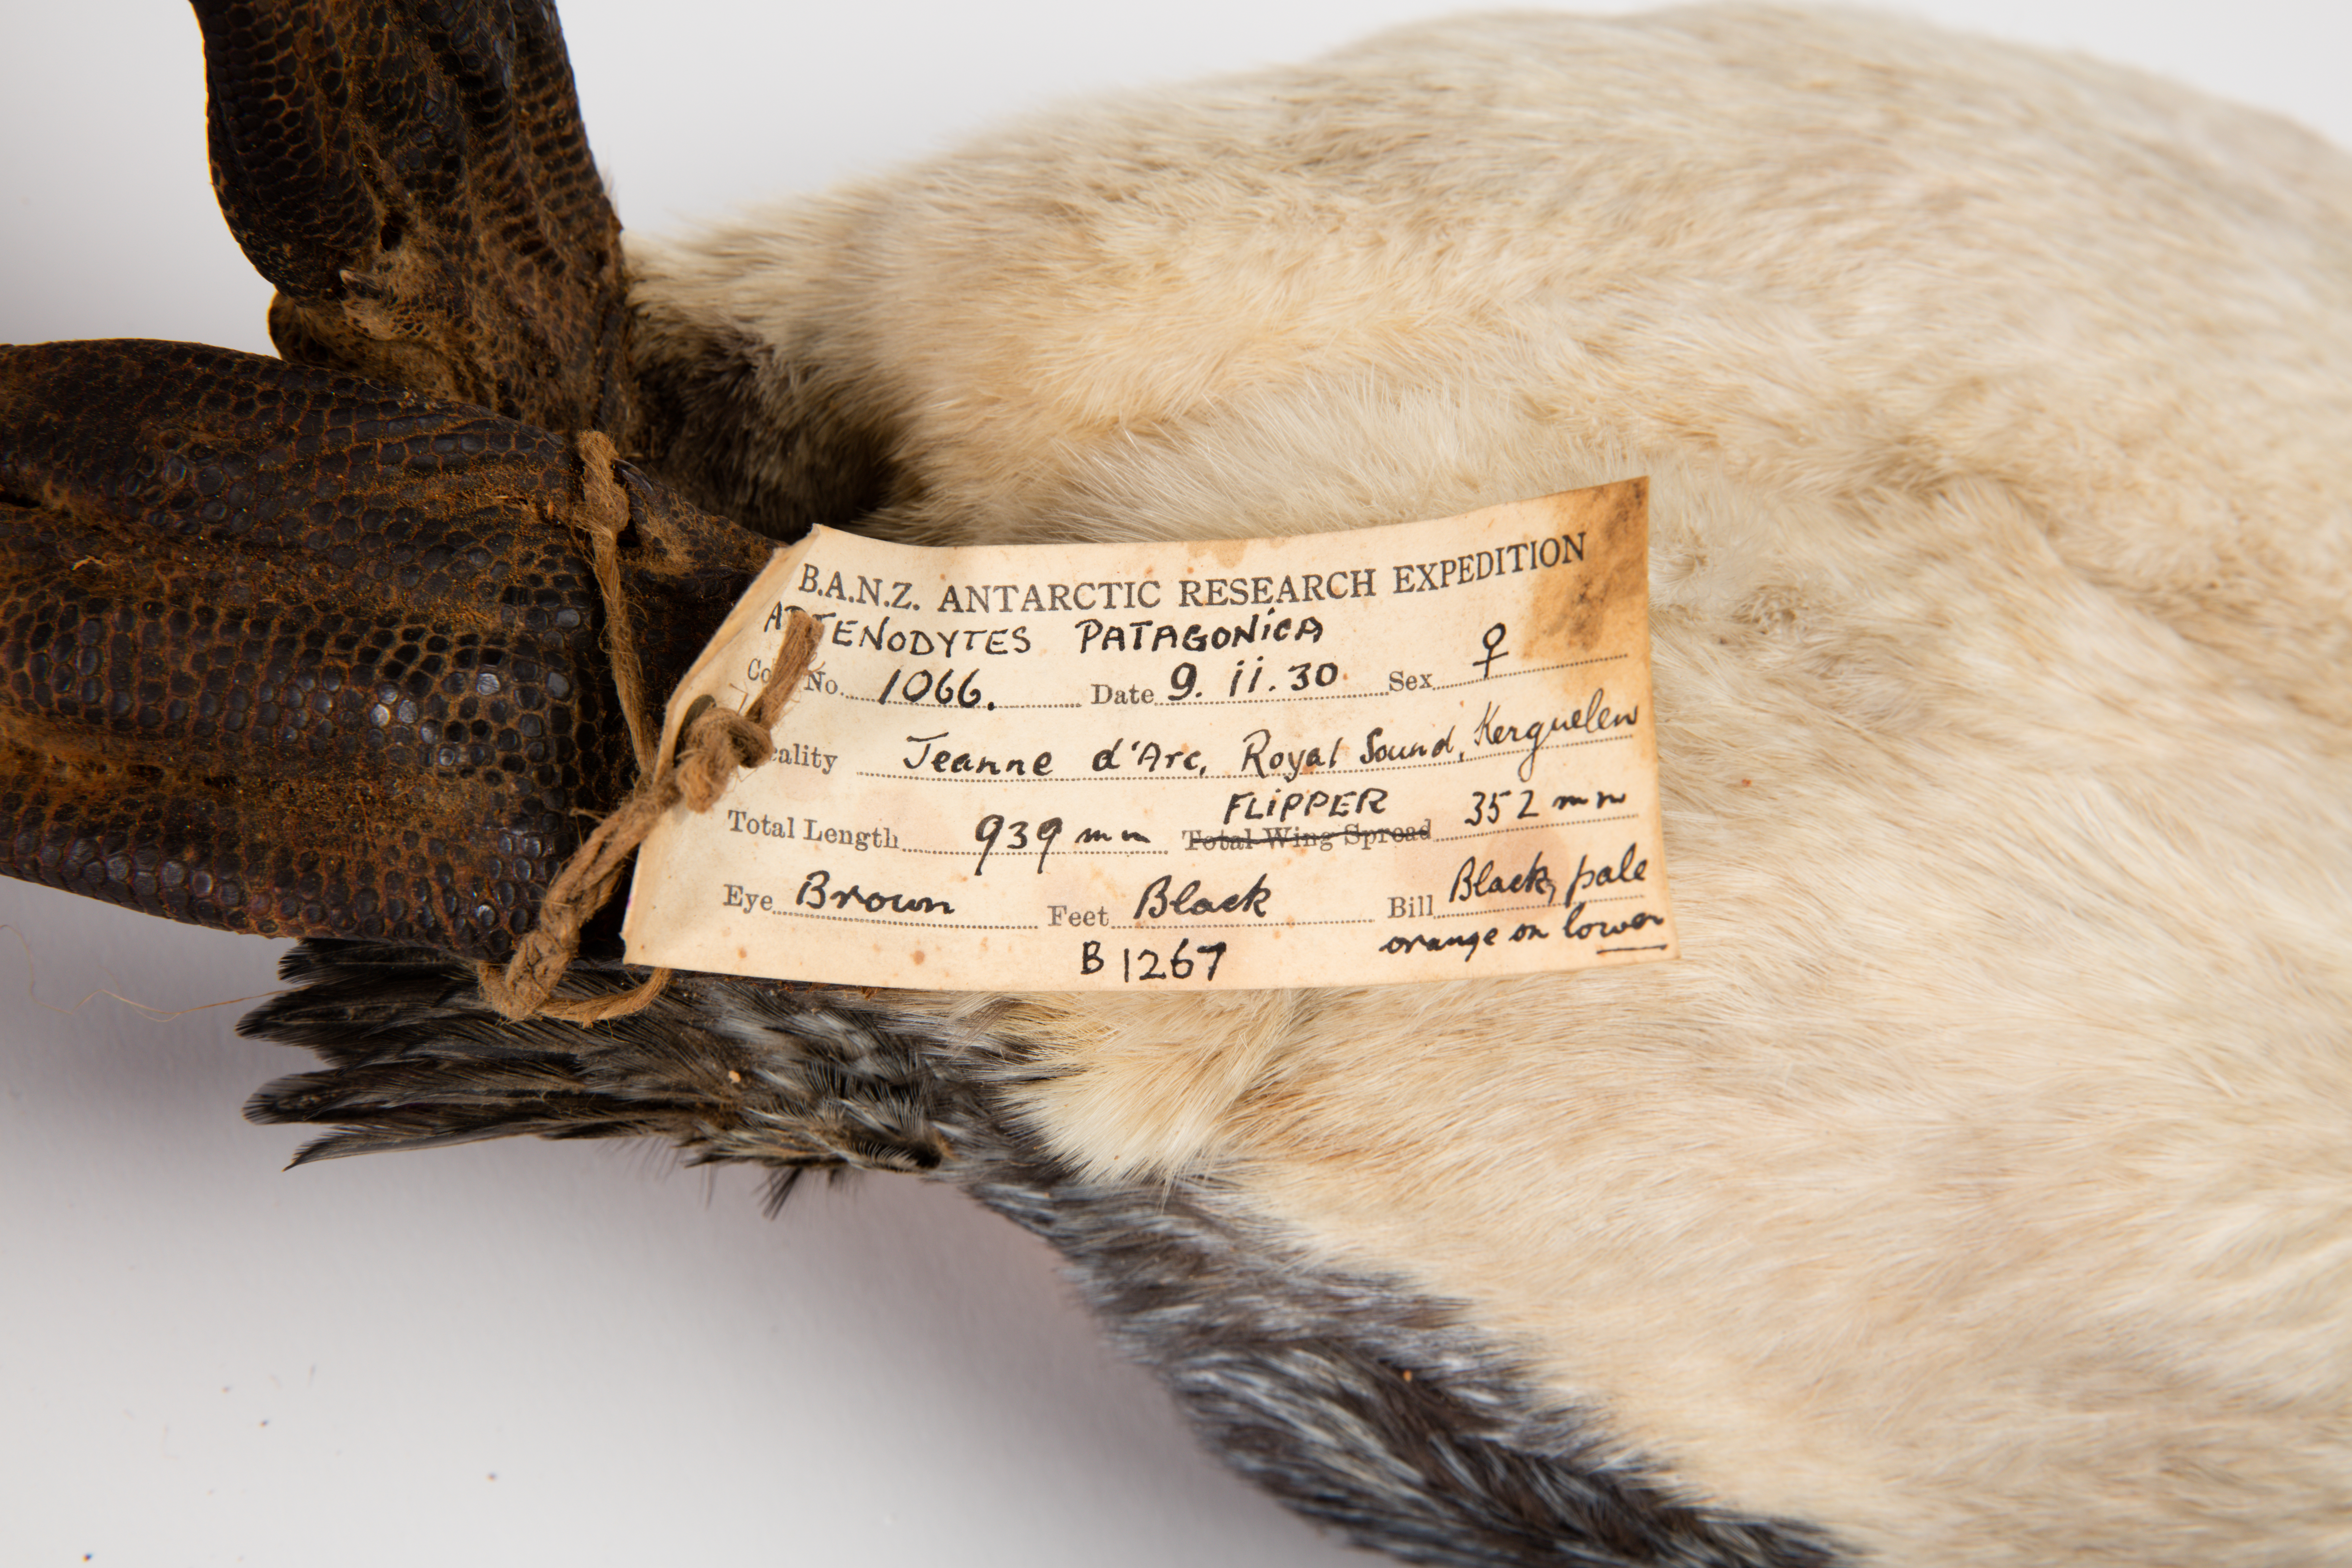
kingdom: Animalia
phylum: Chordata
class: Aves
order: Sphenisciformes
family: Spheniscidae
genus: Aptenodytes
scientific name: Aptenodytes patagonicus
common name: King penguin
